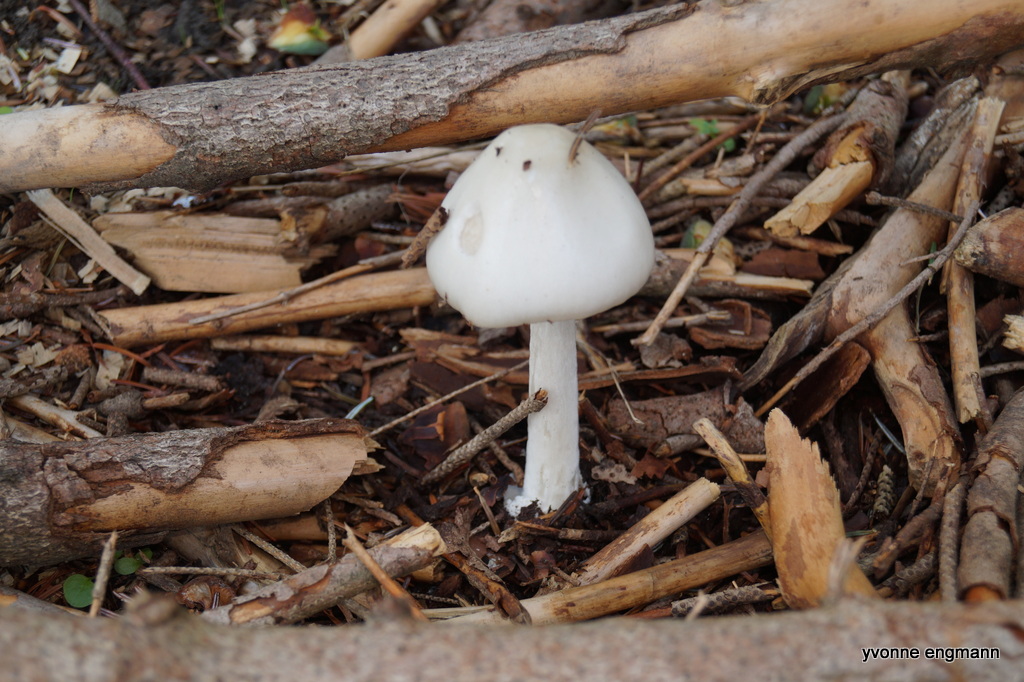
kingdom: Fungi
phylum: Basidiomycota
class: Agaricomycetes
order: Agaricales
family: Pluteaceae
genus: Volvopluteus
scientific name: Volvopluteus gloiocephalus
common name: høj posesvamp
